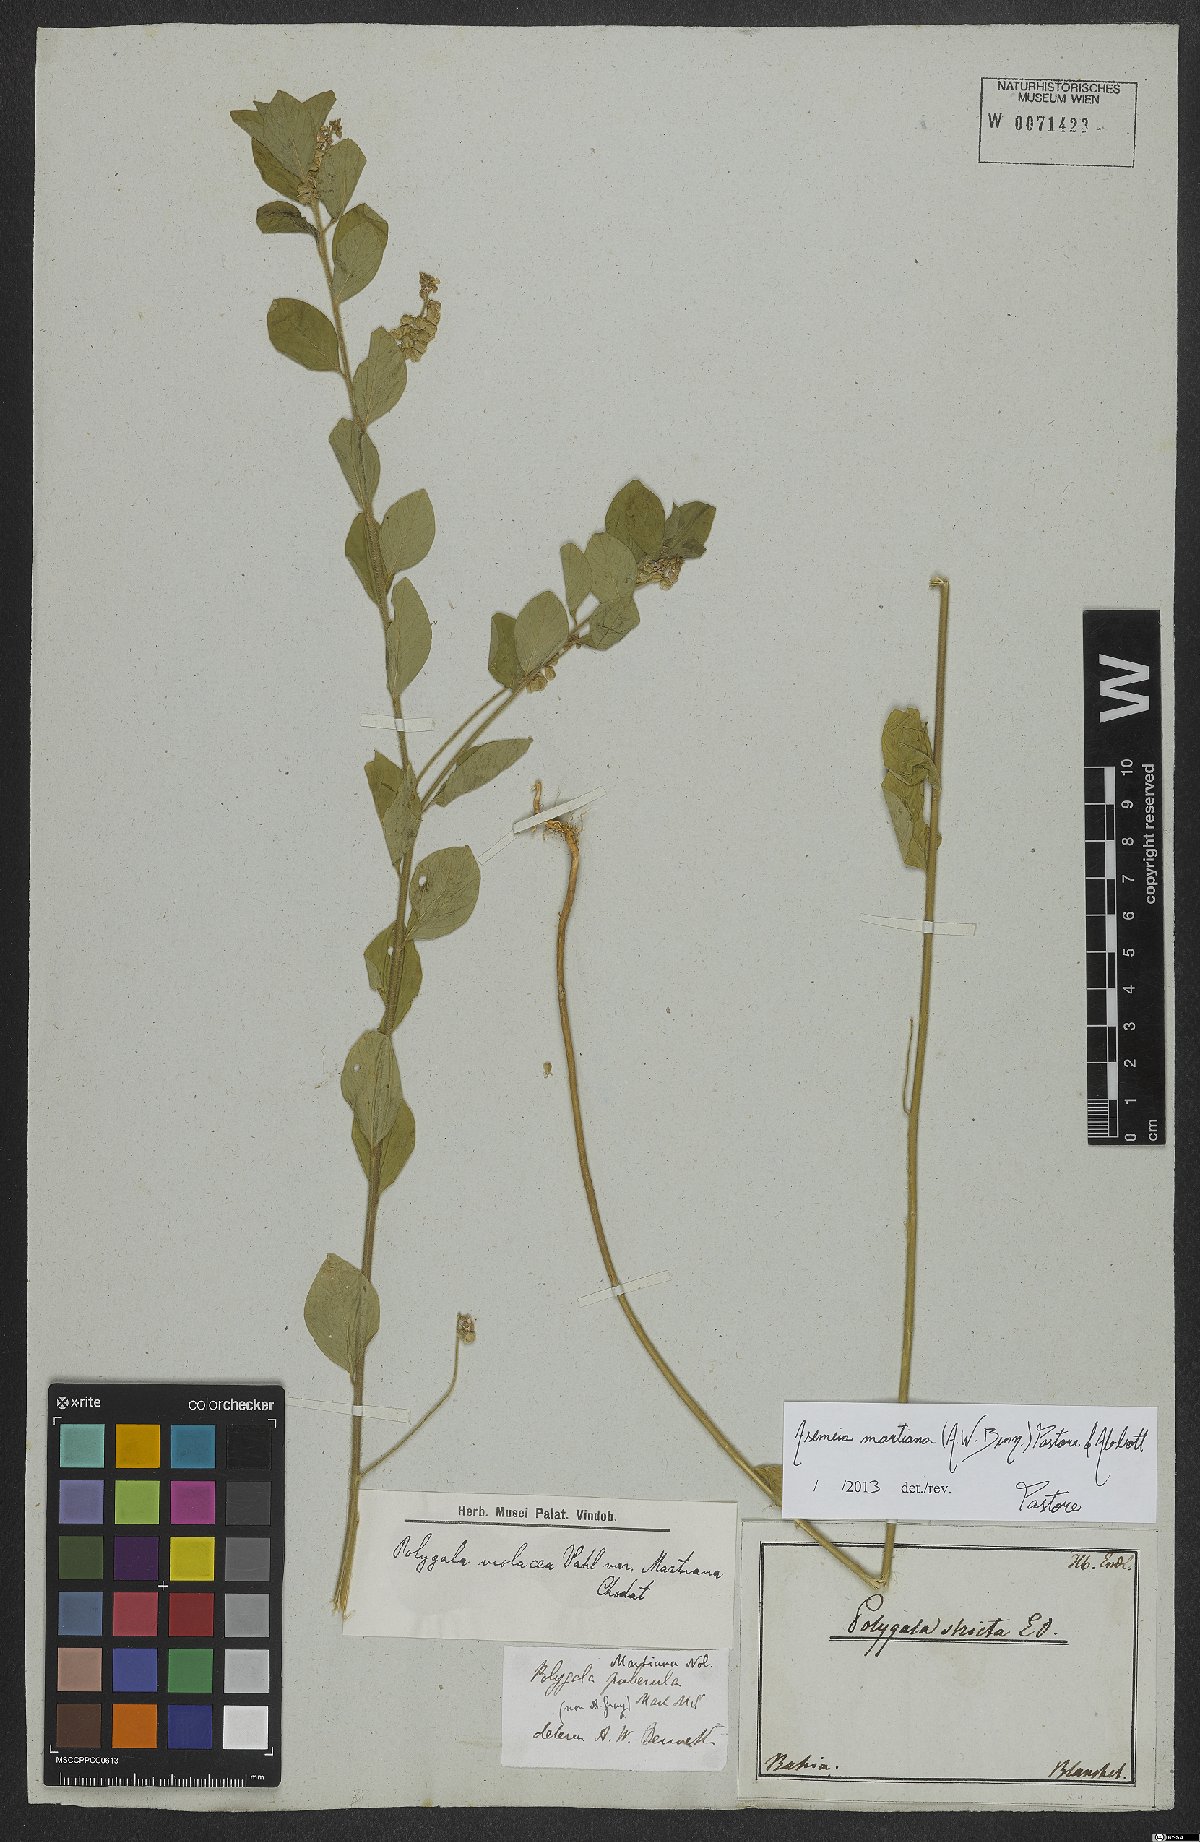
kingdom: Plantae
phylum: Tracheophyta
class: Magnoliopsida
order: Fabales
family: Polygalaceae
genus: Asemeia
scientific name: Asemeia martiana
